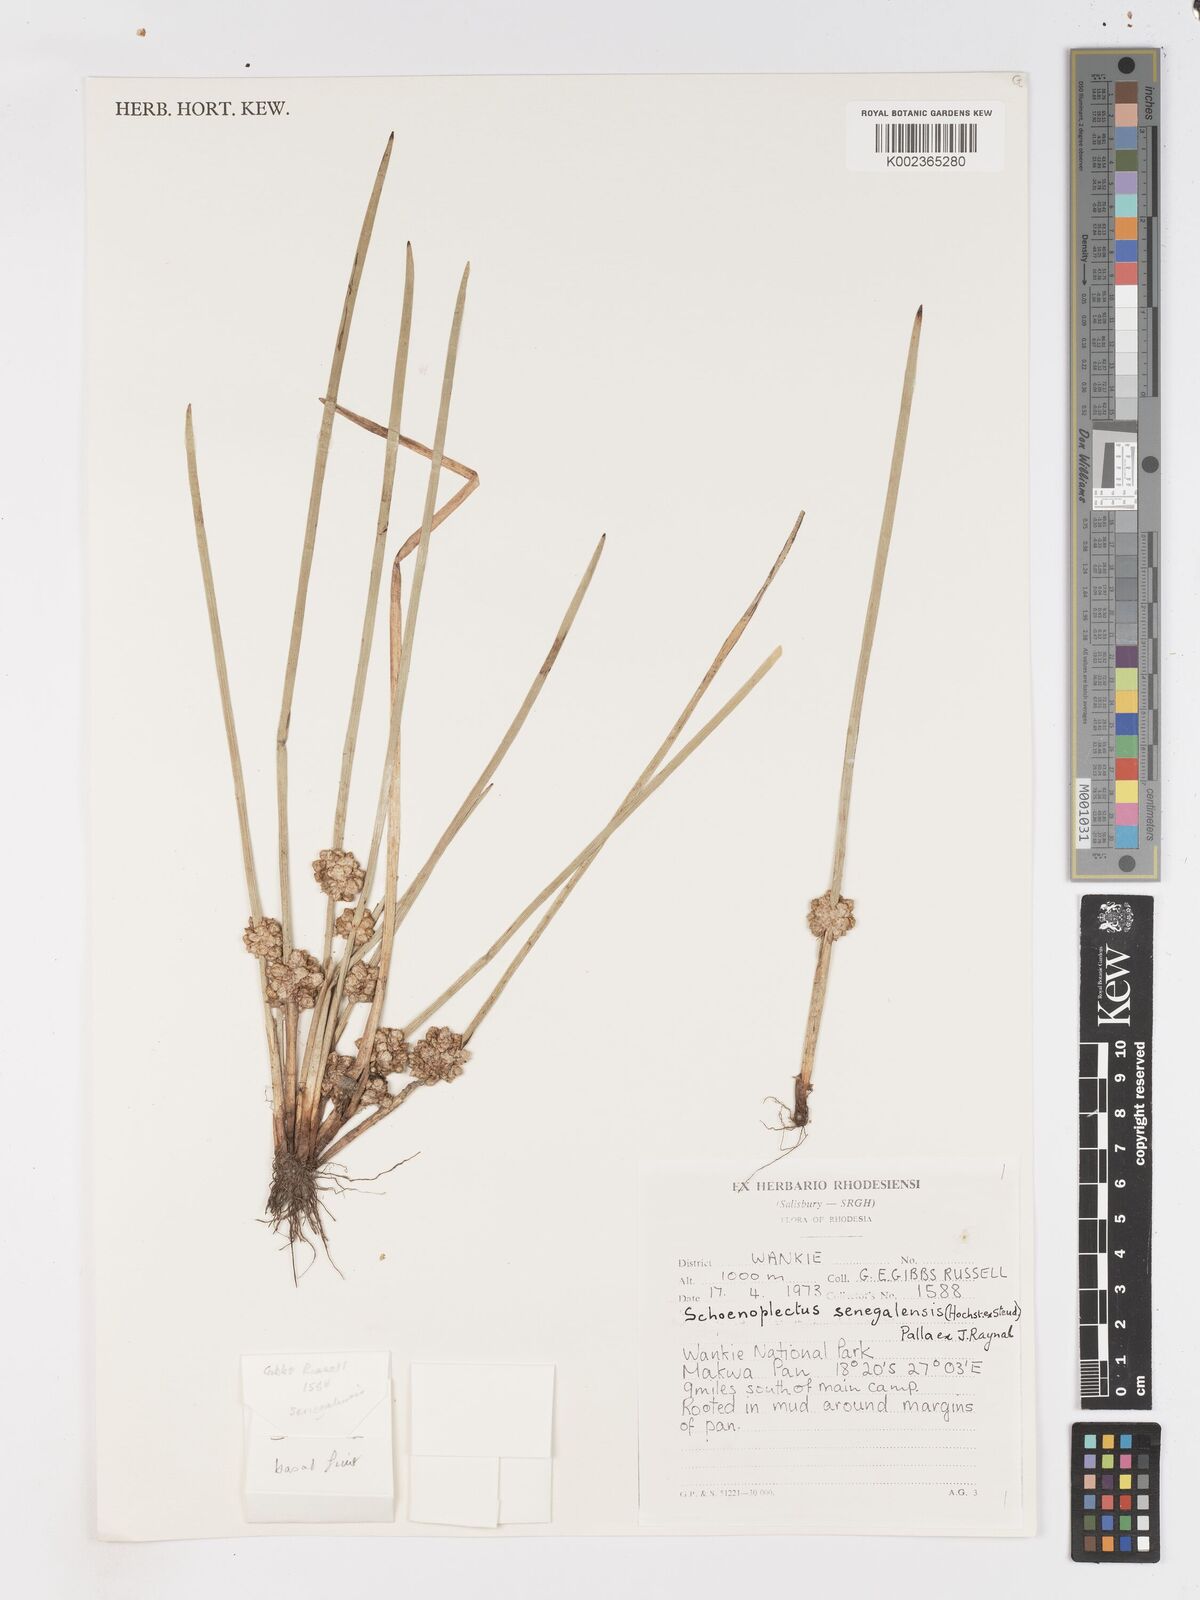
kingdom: Plantae
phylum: Tracheophyta
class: Liliopsida
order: Poales
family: Cyperaceae
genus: Schoenoplectiella
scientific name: Schoenoplectiella senegalensis
